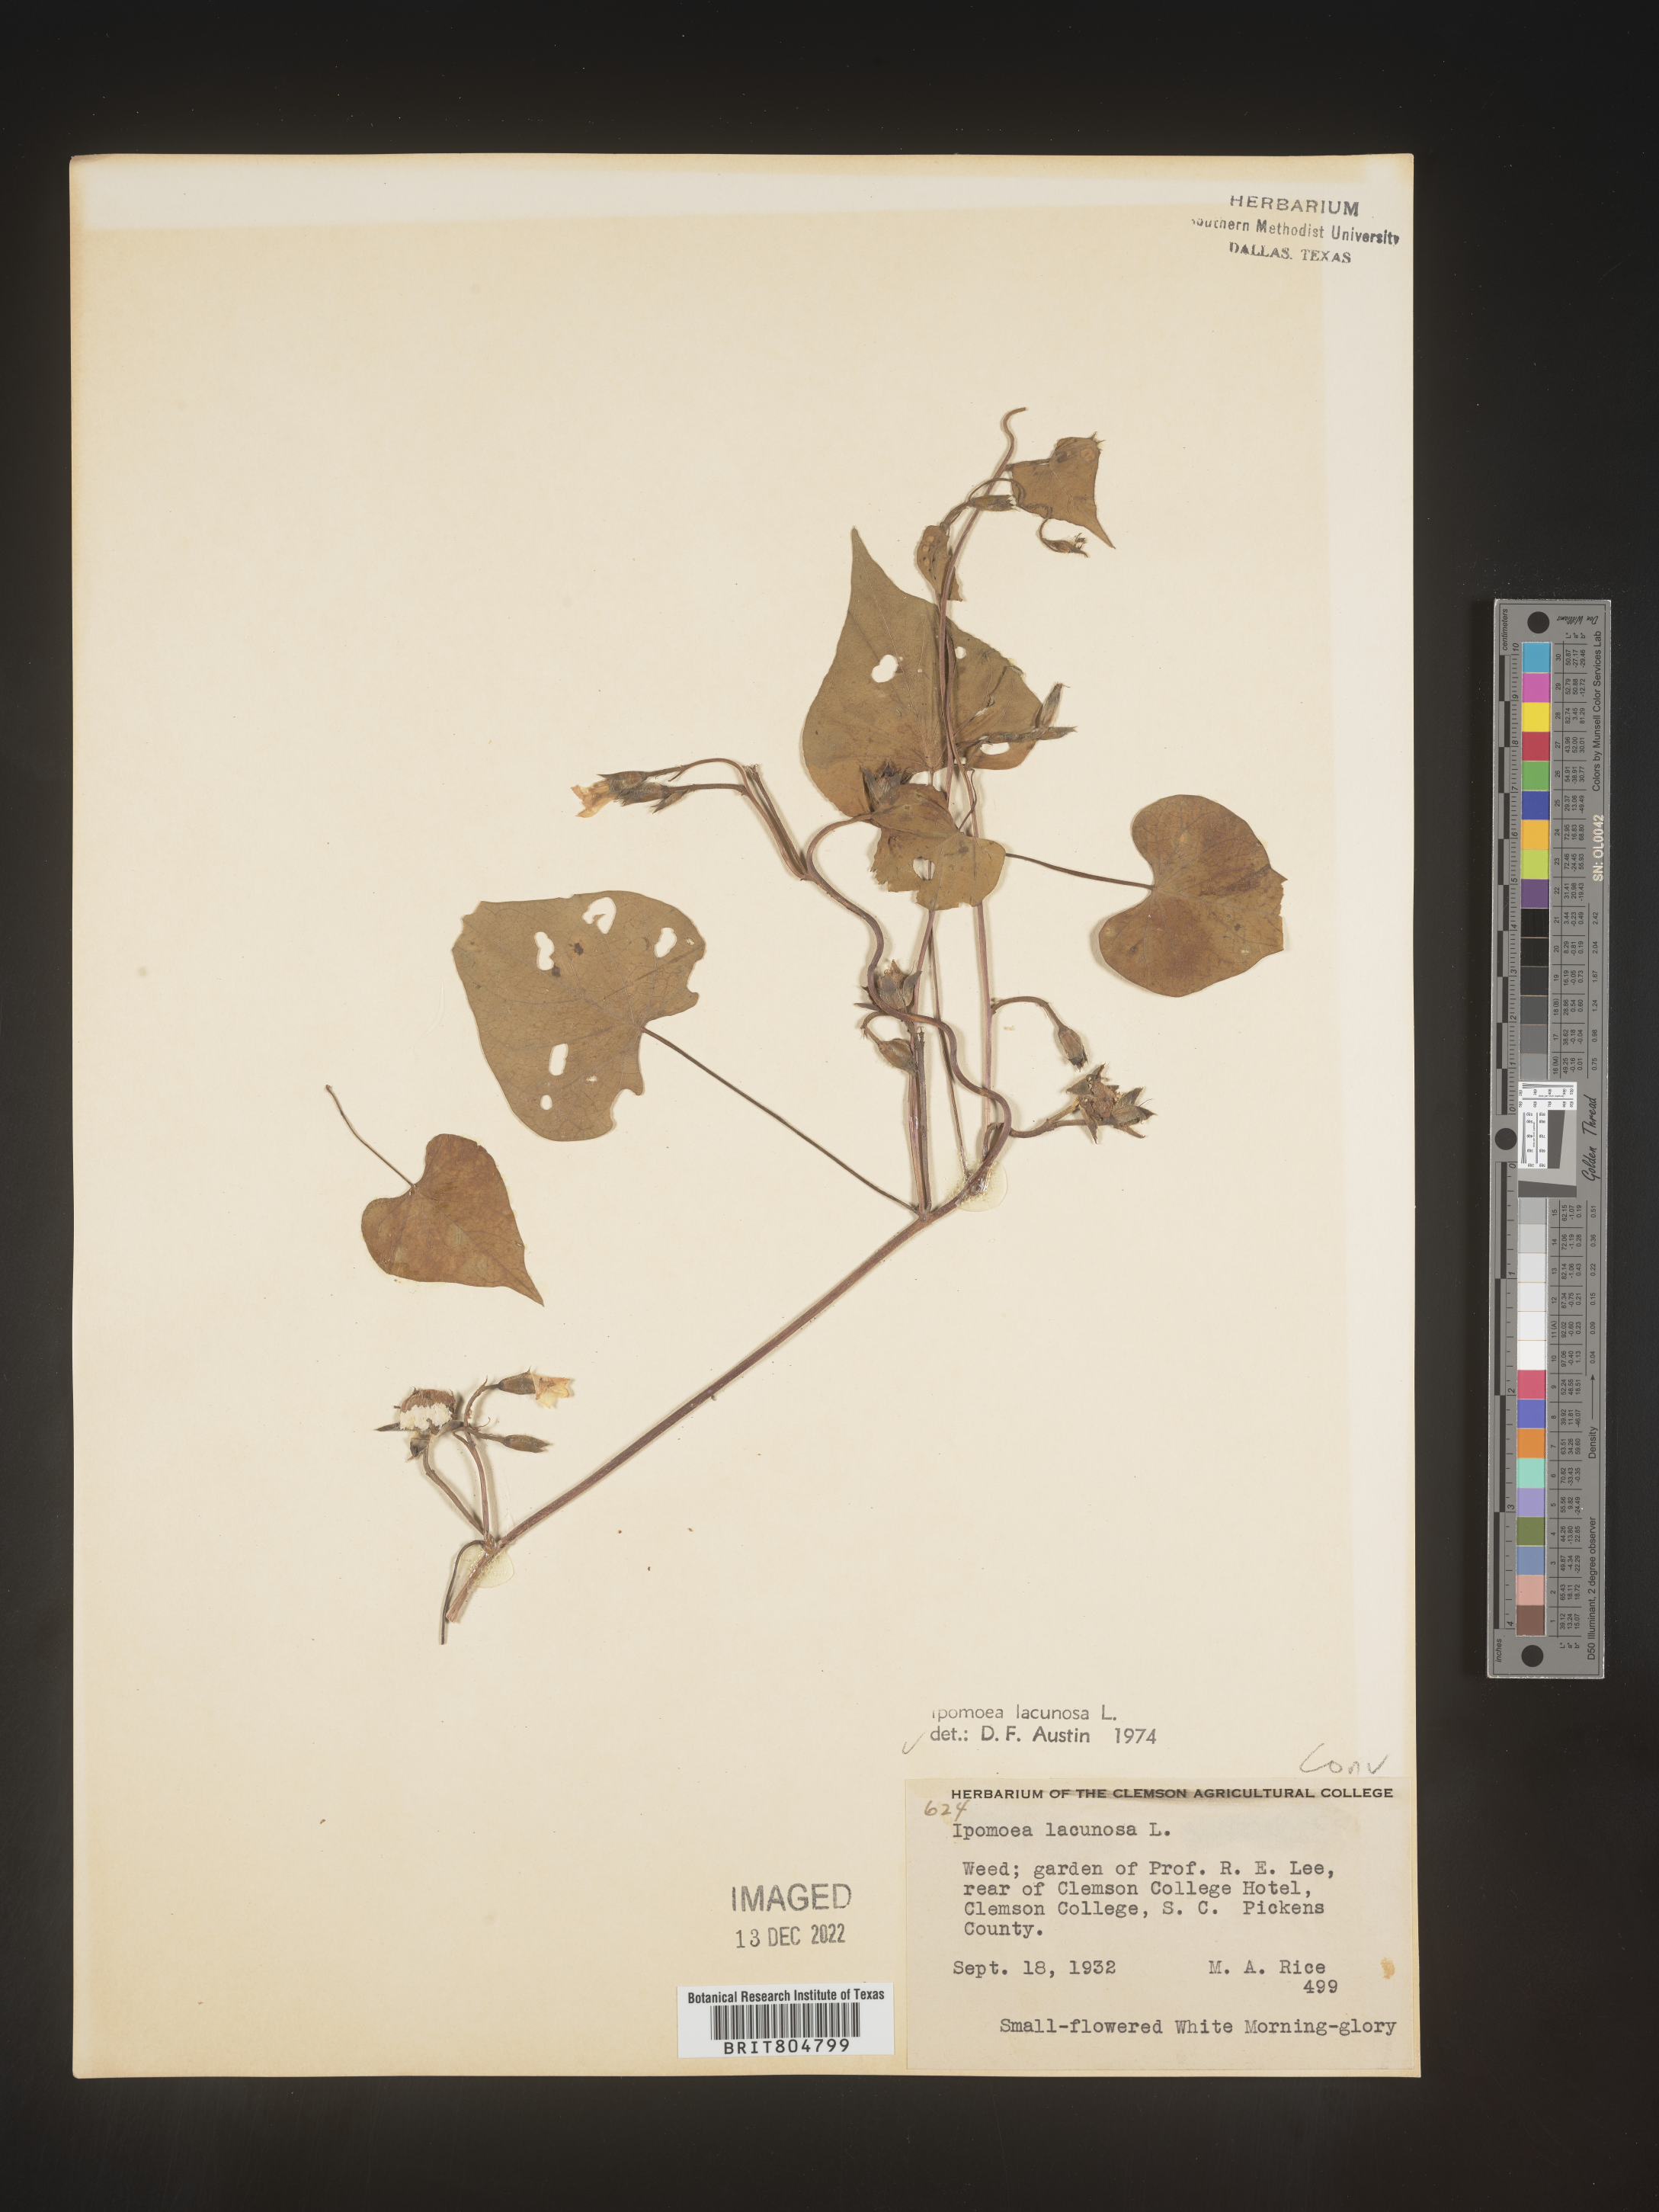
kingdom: Plantae
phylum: Tracheophyta
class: Magnoliopsida
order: Solanales
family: Convolvulaceae
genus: Ipomoea
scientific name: Ipomoea lacunosa
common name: White morning-glory
